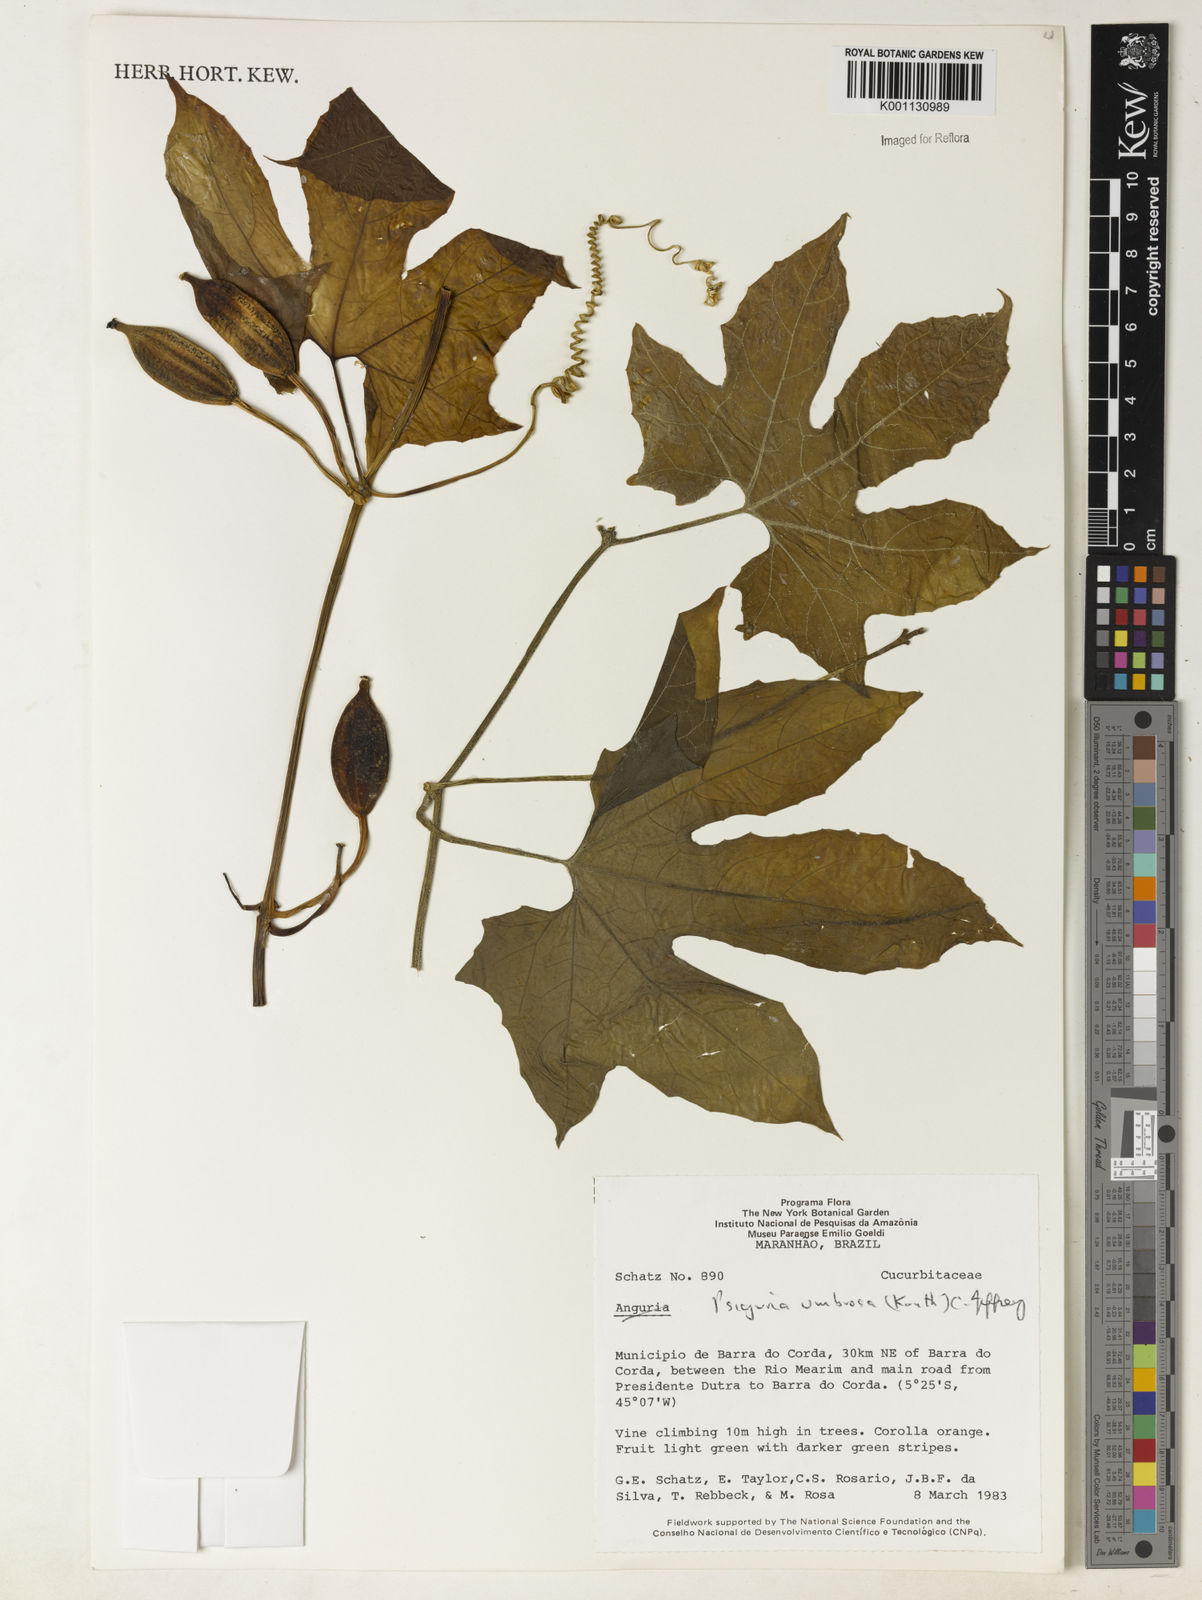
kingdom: Plantae
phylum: Tracheophyta
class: Magnoliopsida
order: Cucurbitales
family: Cucurbitaceae
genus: Psiguria
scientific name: Psiguria umbrosa
